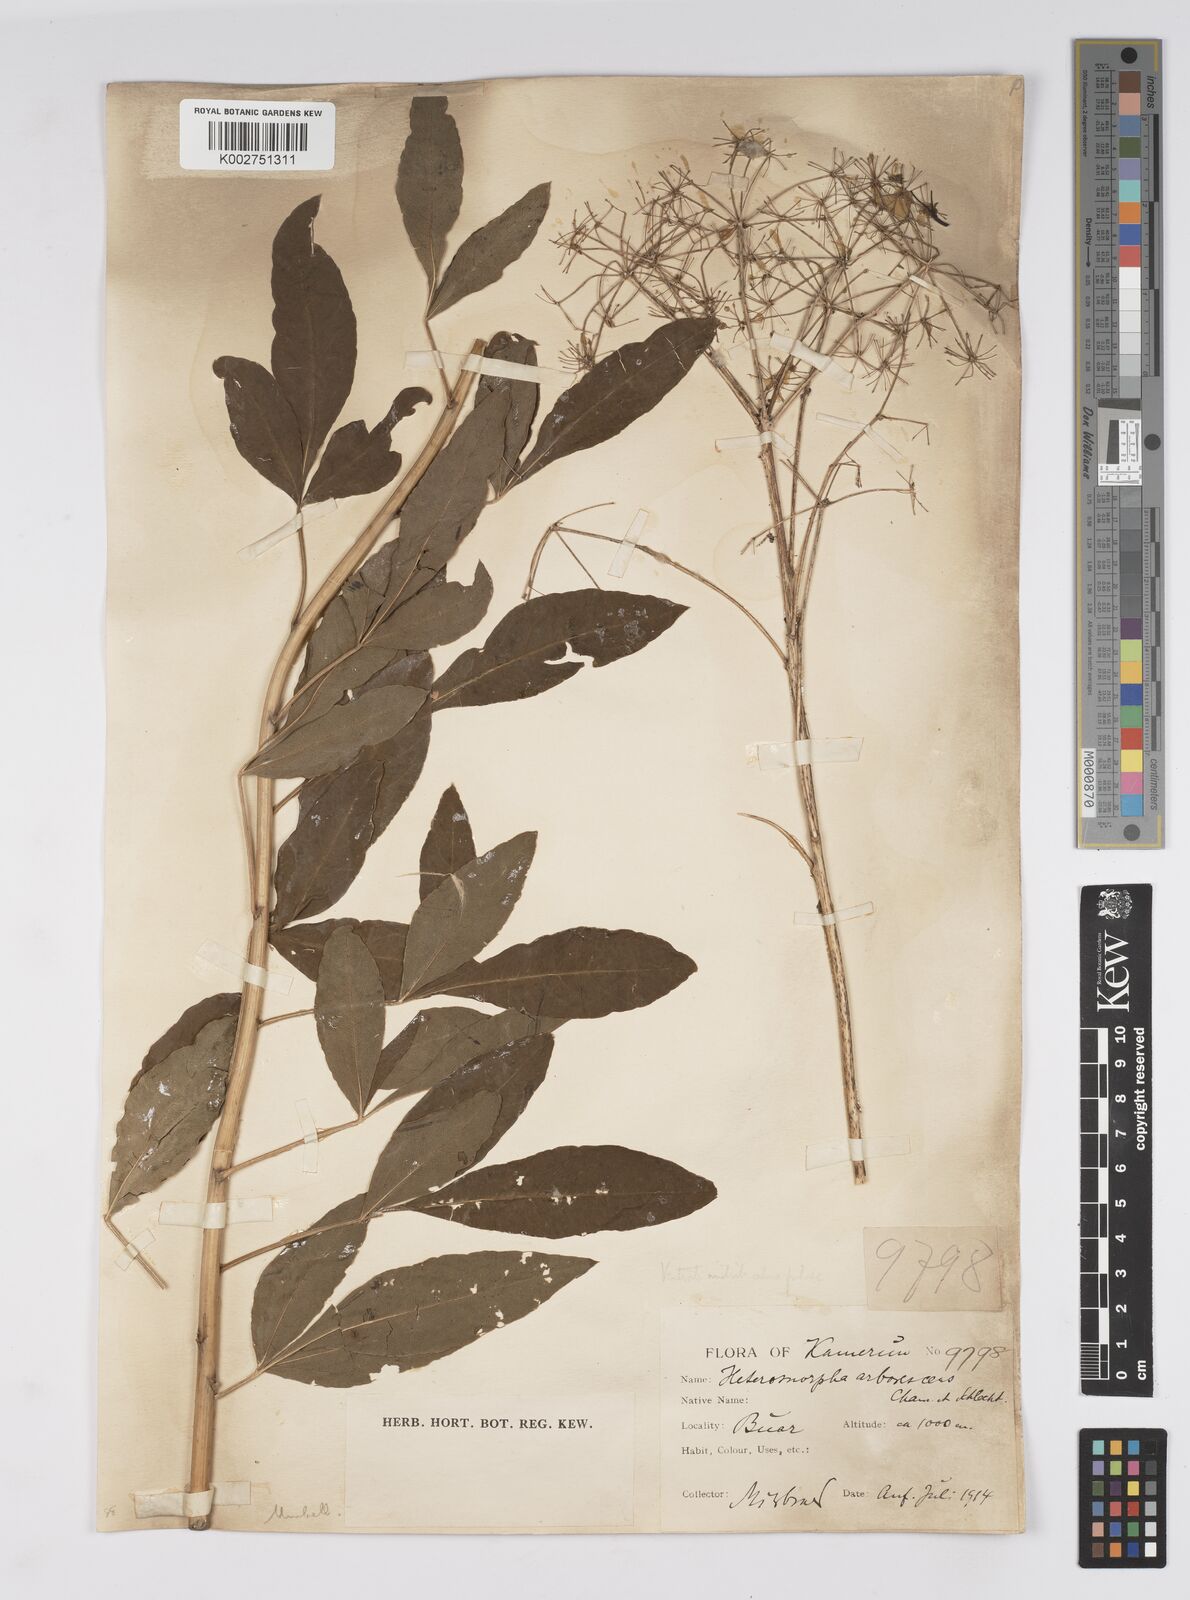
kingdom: Plantae
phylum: Tracheophyta
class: Magnoliopsida
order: Apiales
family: Apiaceae
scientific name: Apiaceae
